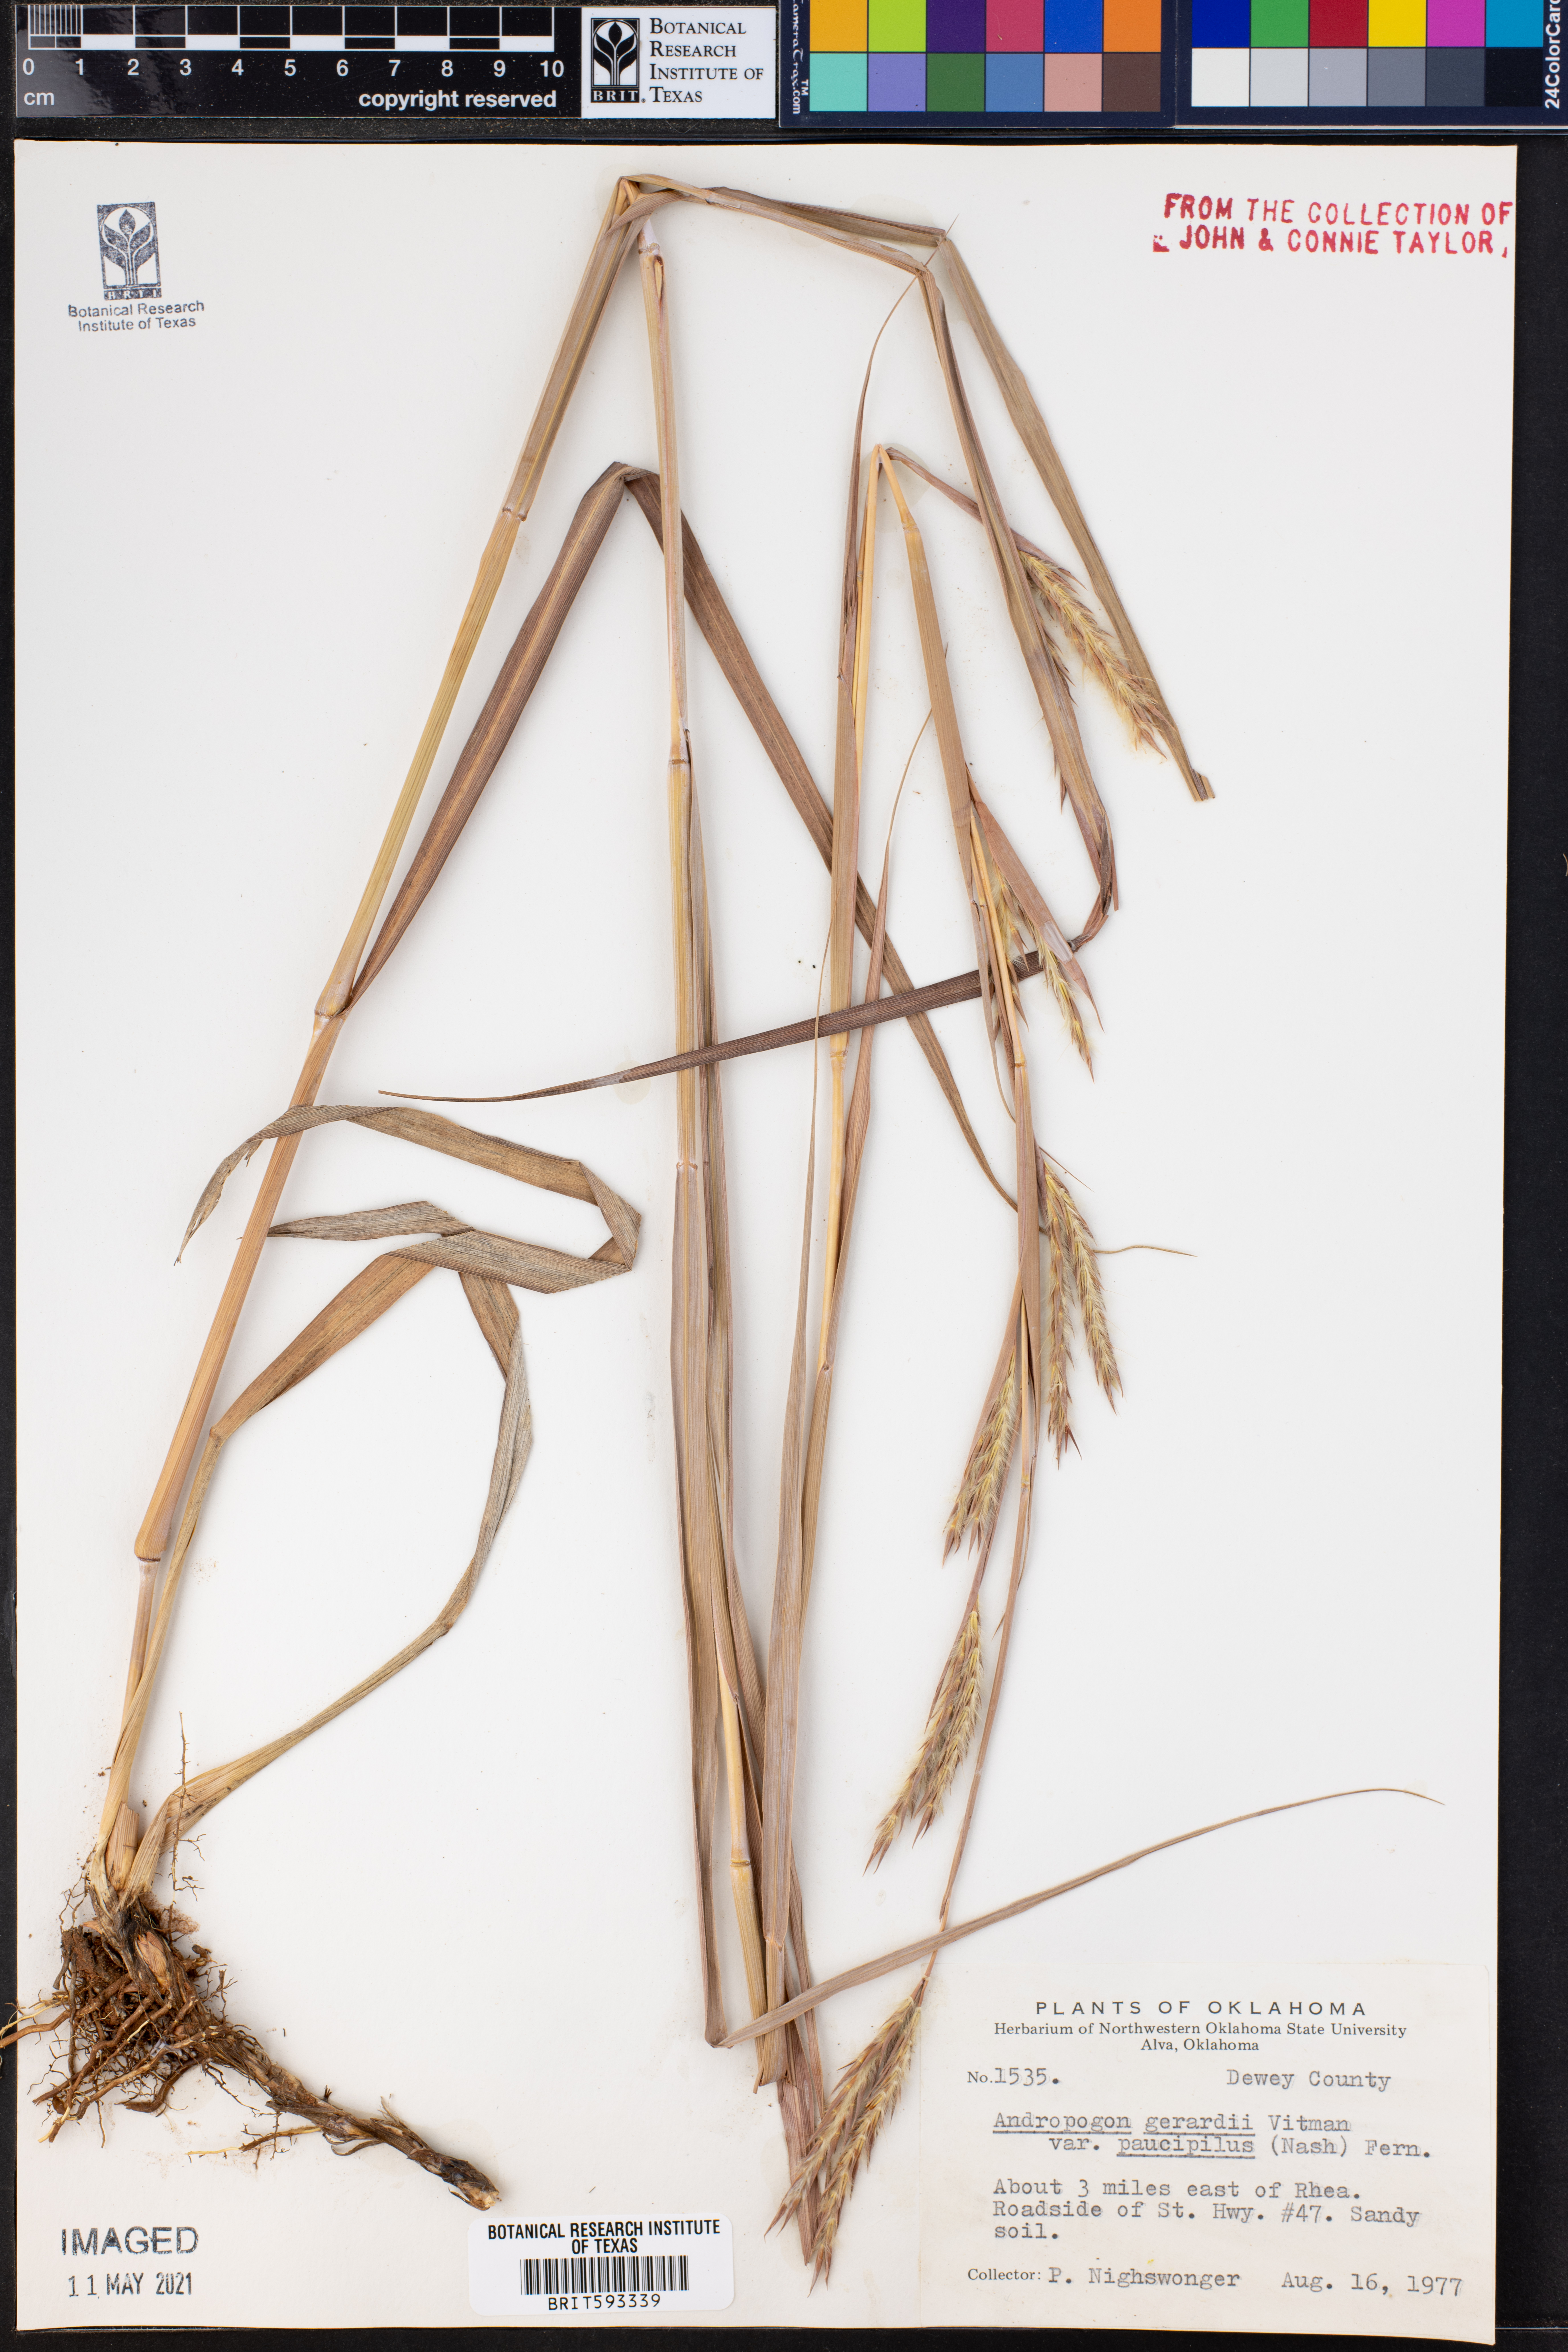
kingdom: Plantae
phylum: Tracheophyta
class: Liliopsida
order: Poales
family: Poaceae
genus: Andropogon
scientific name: Andropogon hallii
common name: Sand bluestem
